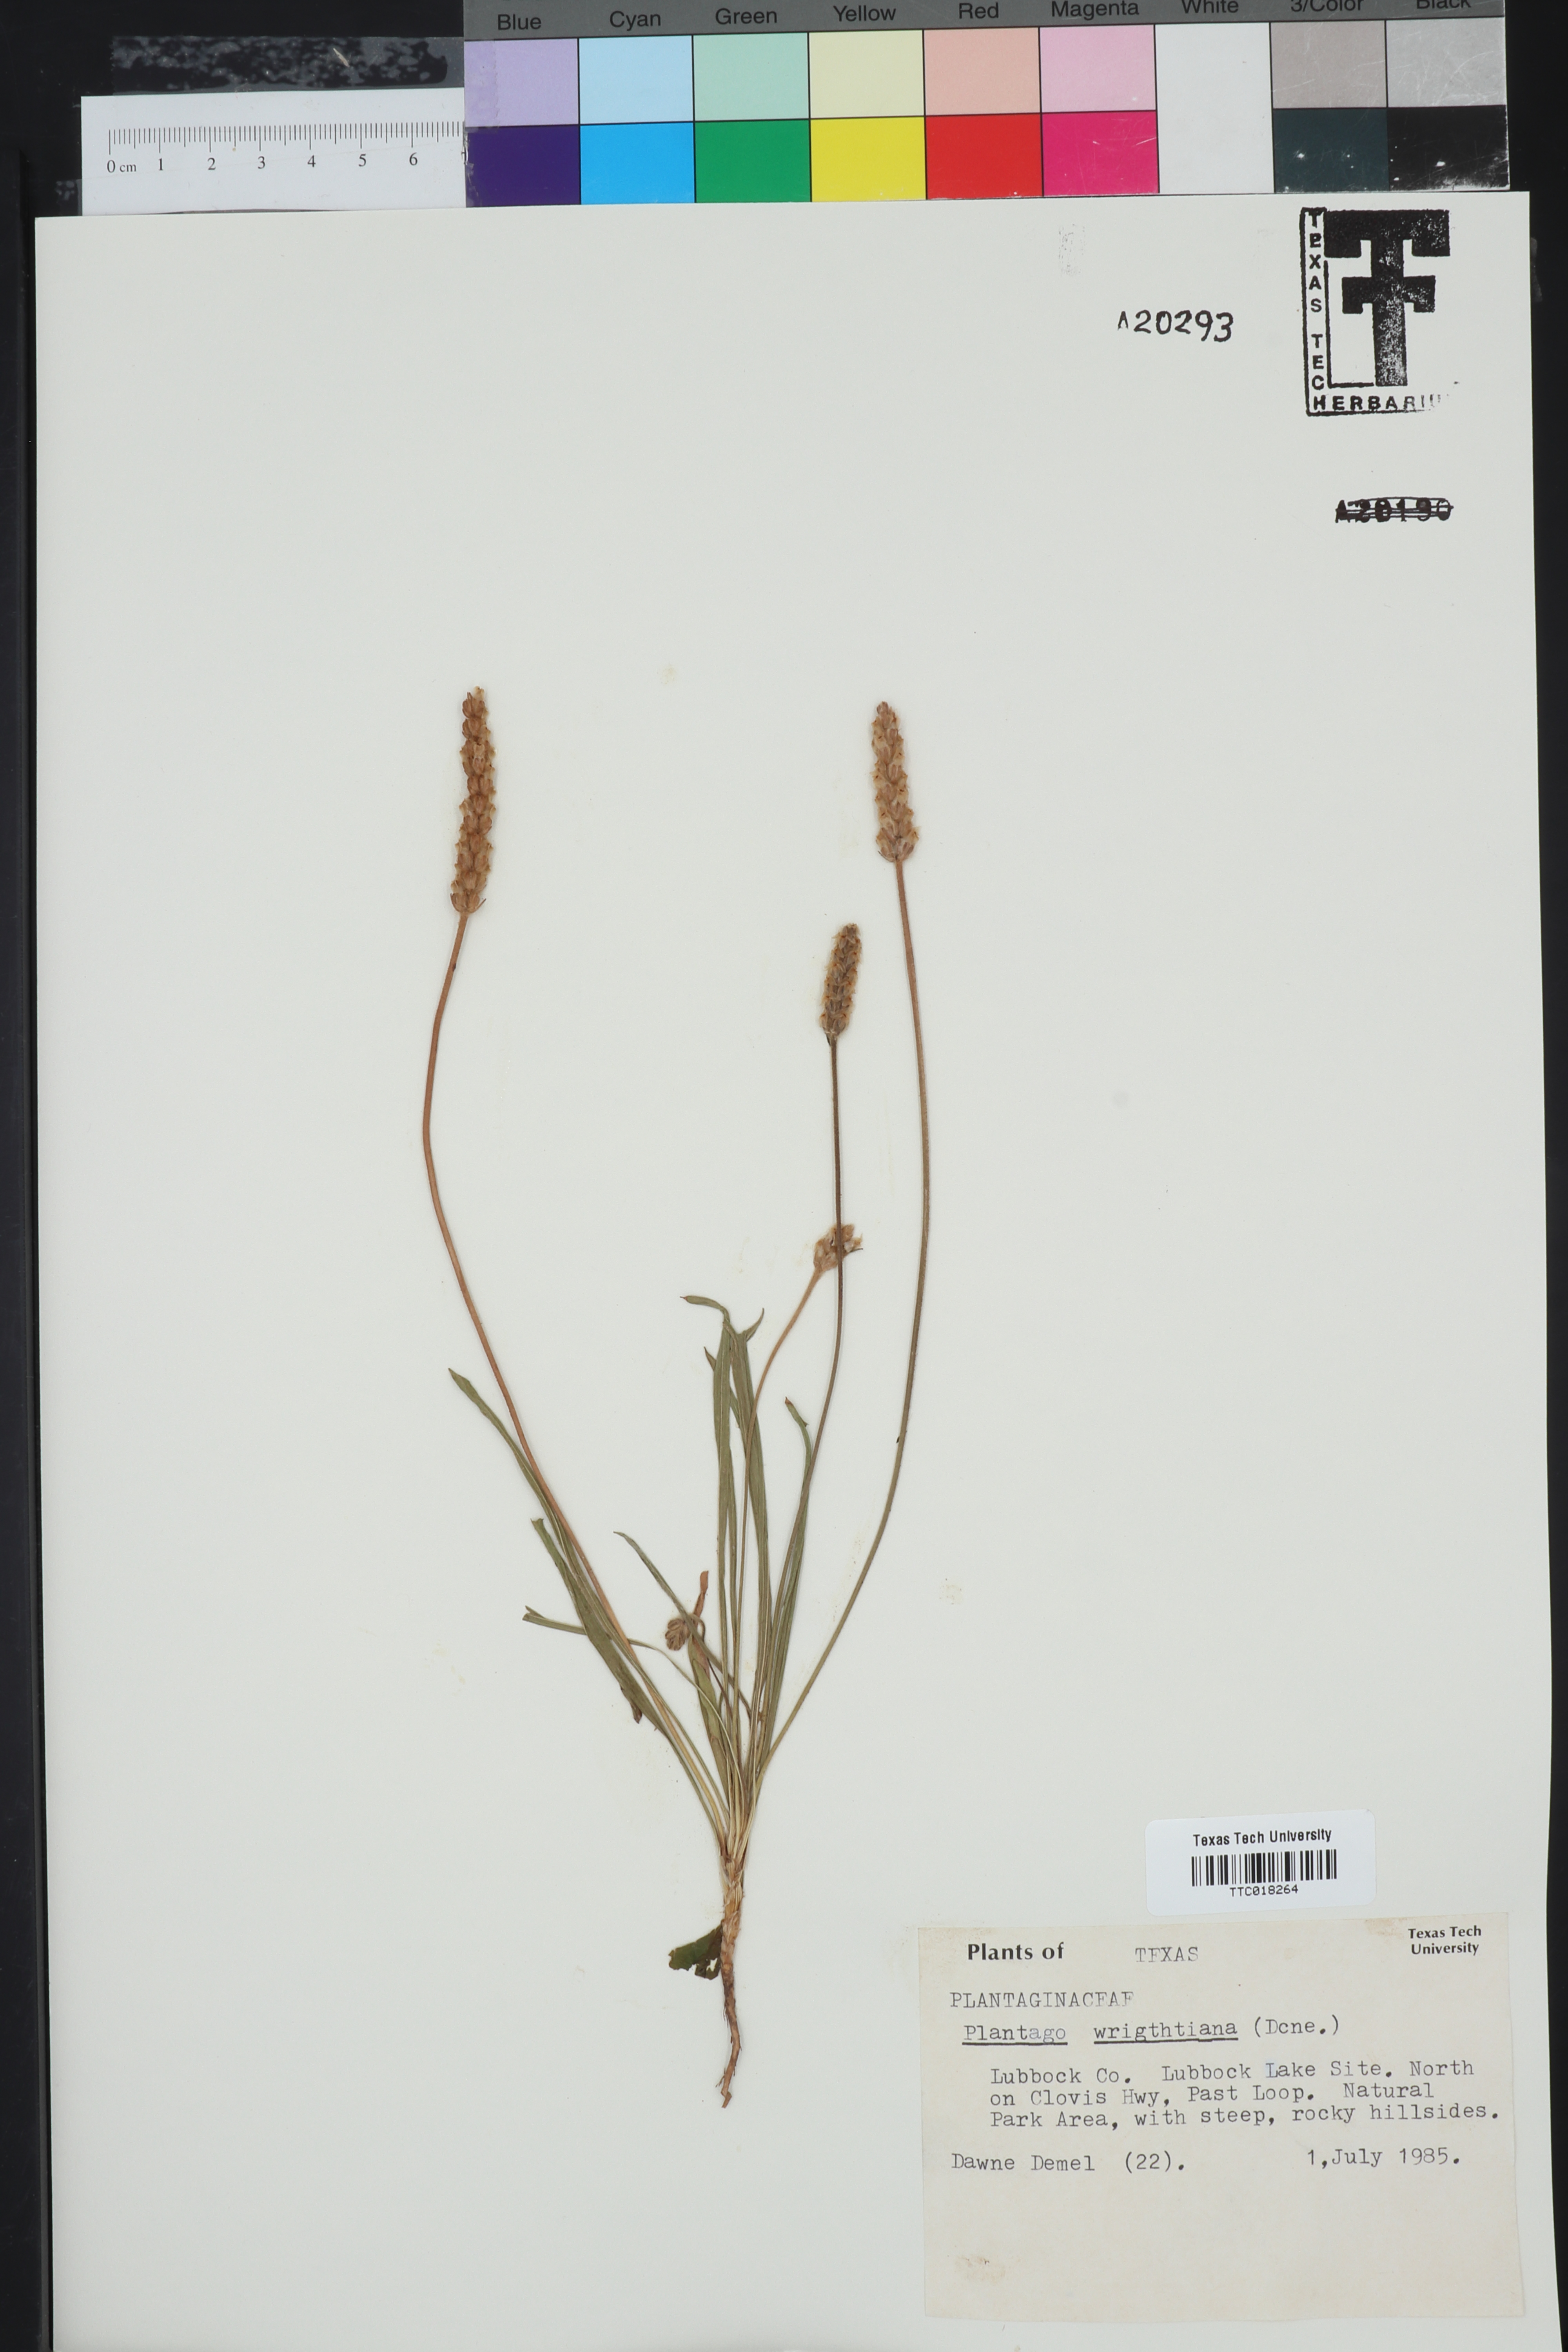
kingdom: Plantae
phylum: Tracheophyta
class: Magnoliopsida
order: Lamiales
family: Plantaginaceae
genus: Plantago
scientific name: Plantago wrightiana
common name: Wright's plantain
